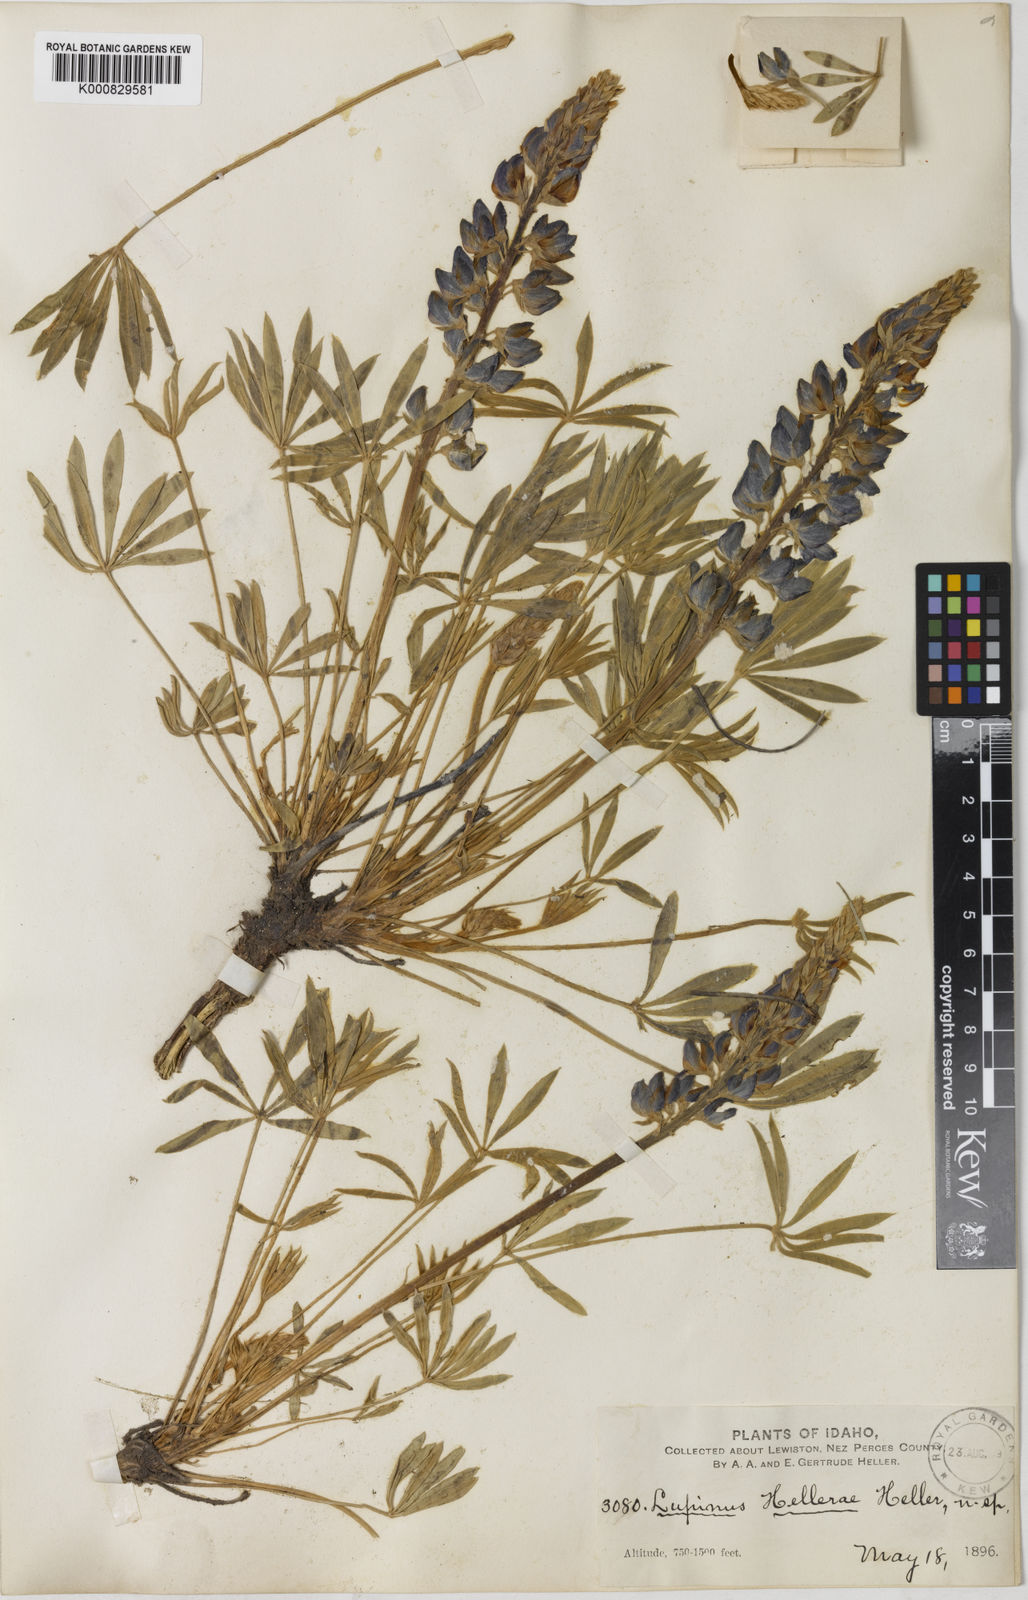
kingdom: Plantae
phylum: Tracheophyta
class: Magnoliopsida
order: Fabales
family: Fabaceae
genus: Lupinus
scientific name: Lupinus ornatus
